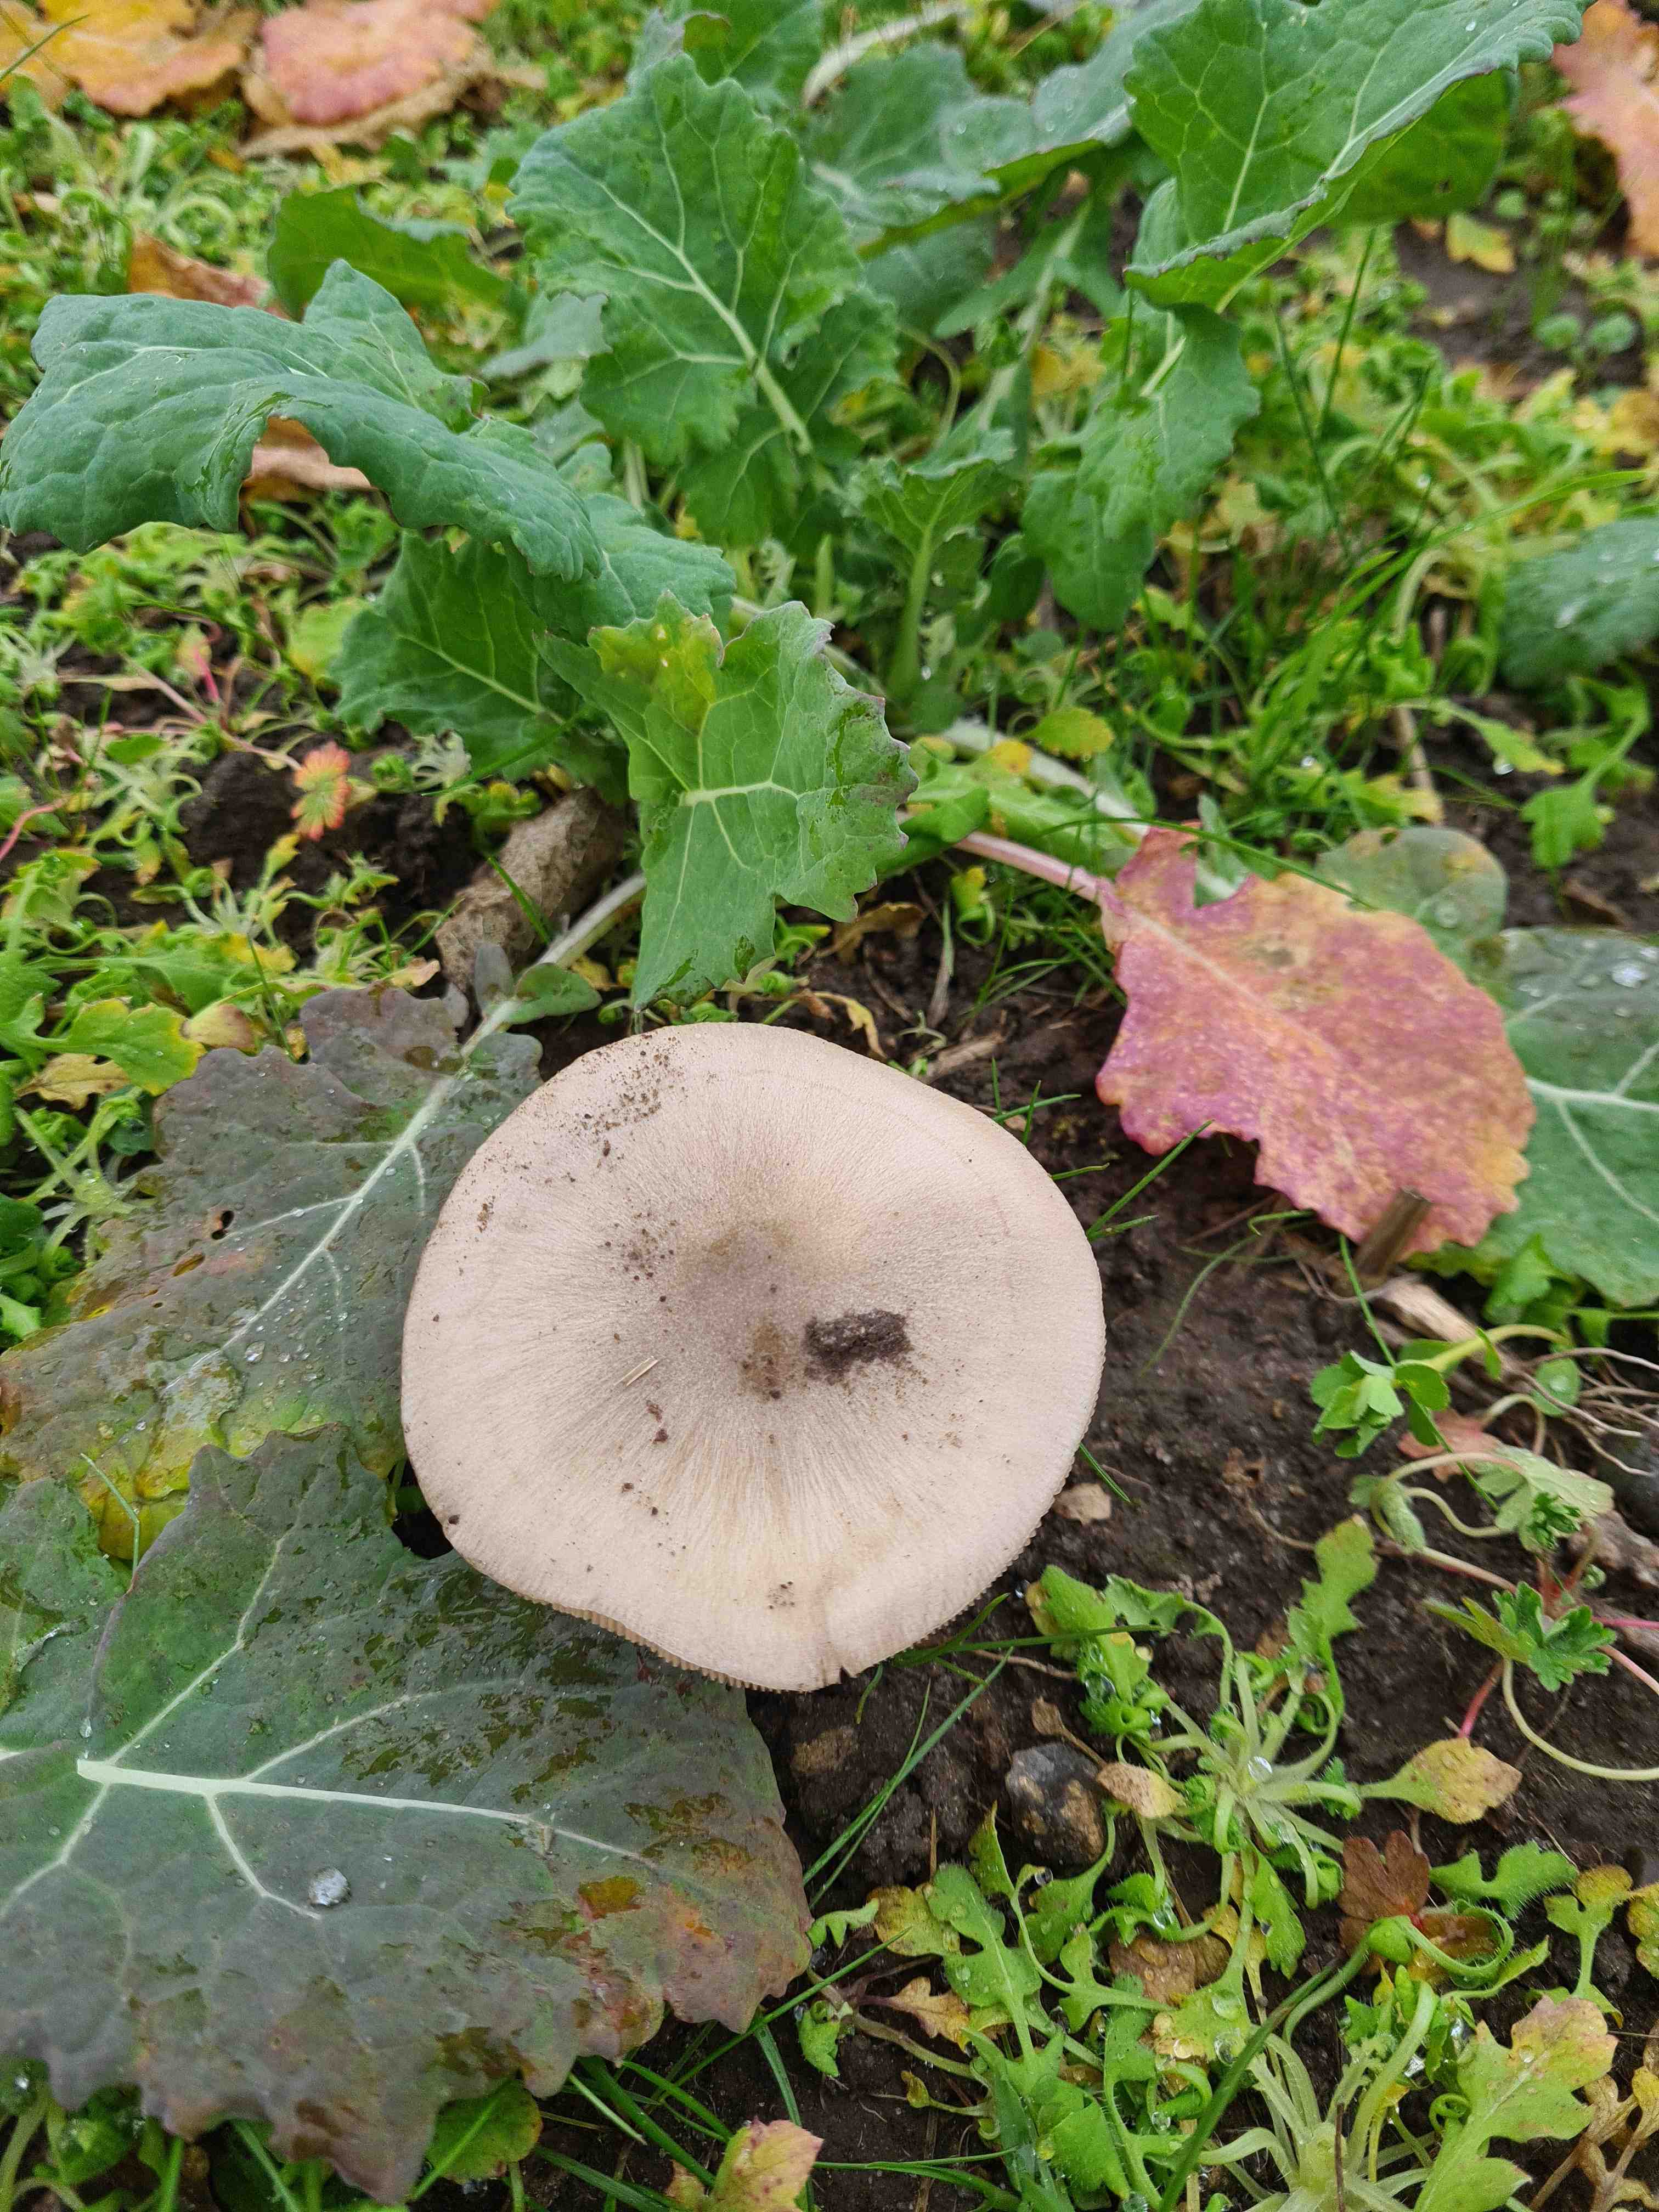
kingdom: Fungi
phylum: Basidiomycota
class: Agaricomycetes
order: Agaricales
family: Pluteaceae
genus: Volvopluteus
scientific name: Volvopluteus gloiocephalus
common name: høj posesvamp
